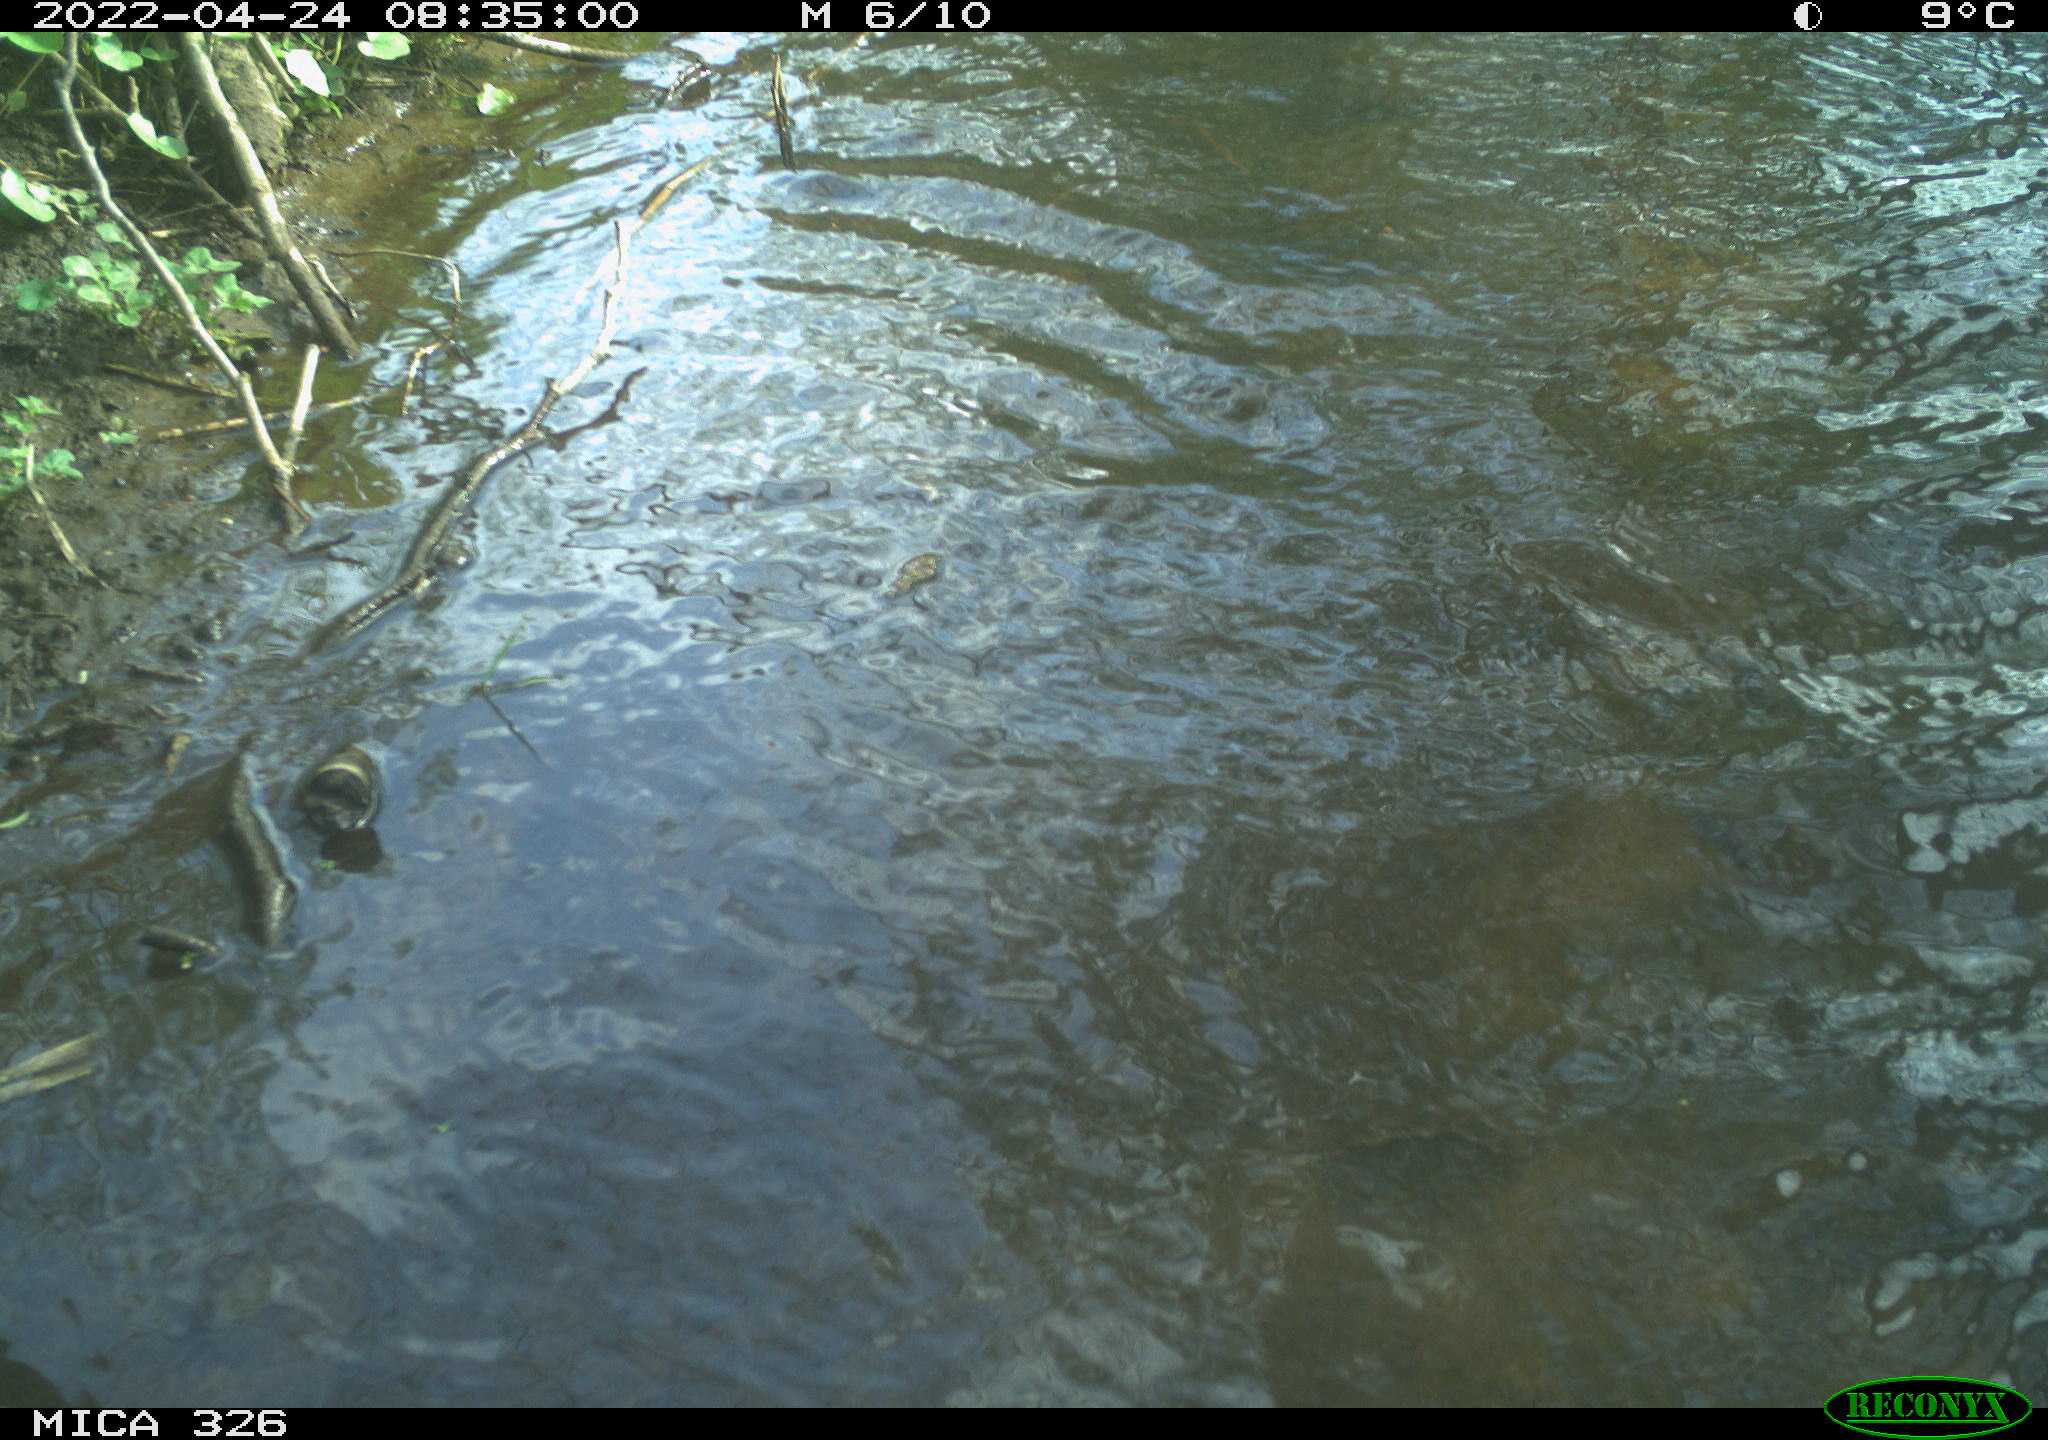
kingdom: Animalia
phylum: Chordata
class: Mammalia
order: Rodentia
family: Cricetidae
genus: Ondatra
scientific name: Ondatra zibethicus
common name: Muskrat
